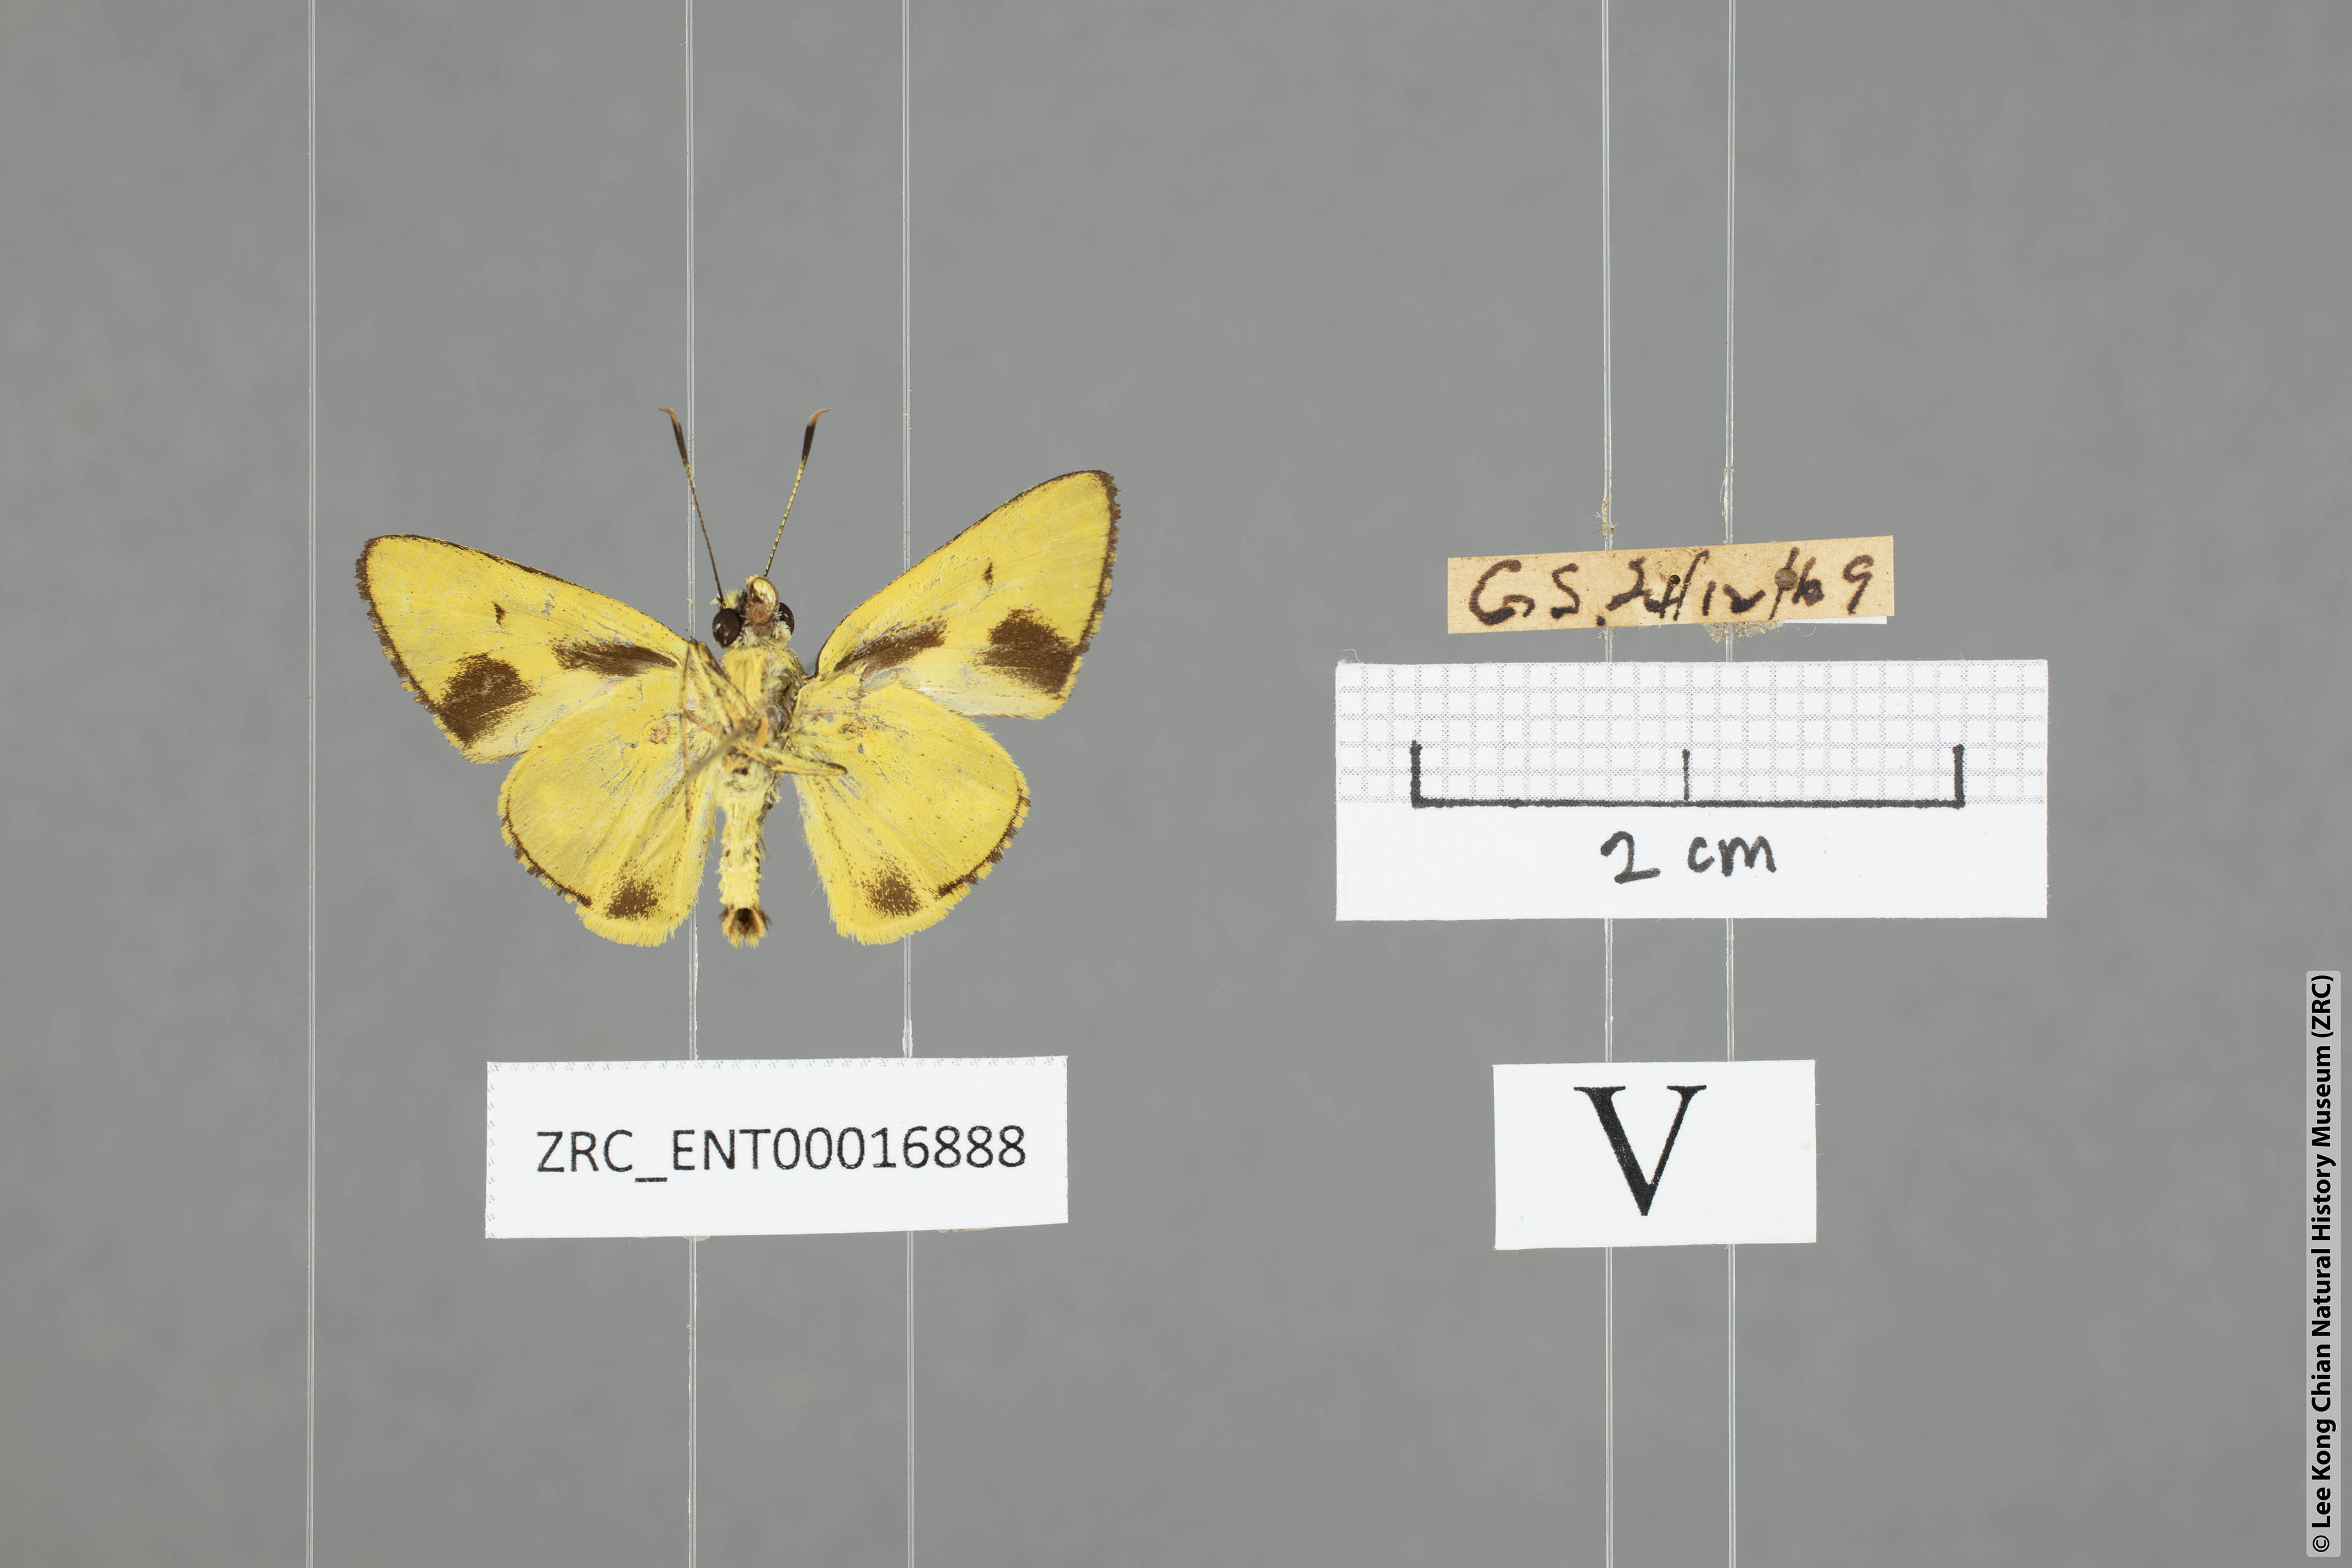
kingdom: Animalia
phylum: Arthropoda
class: Insecta
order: Lepidoptera
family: Hesperiidae
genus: Cupitha
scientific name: Cupitha purreea
